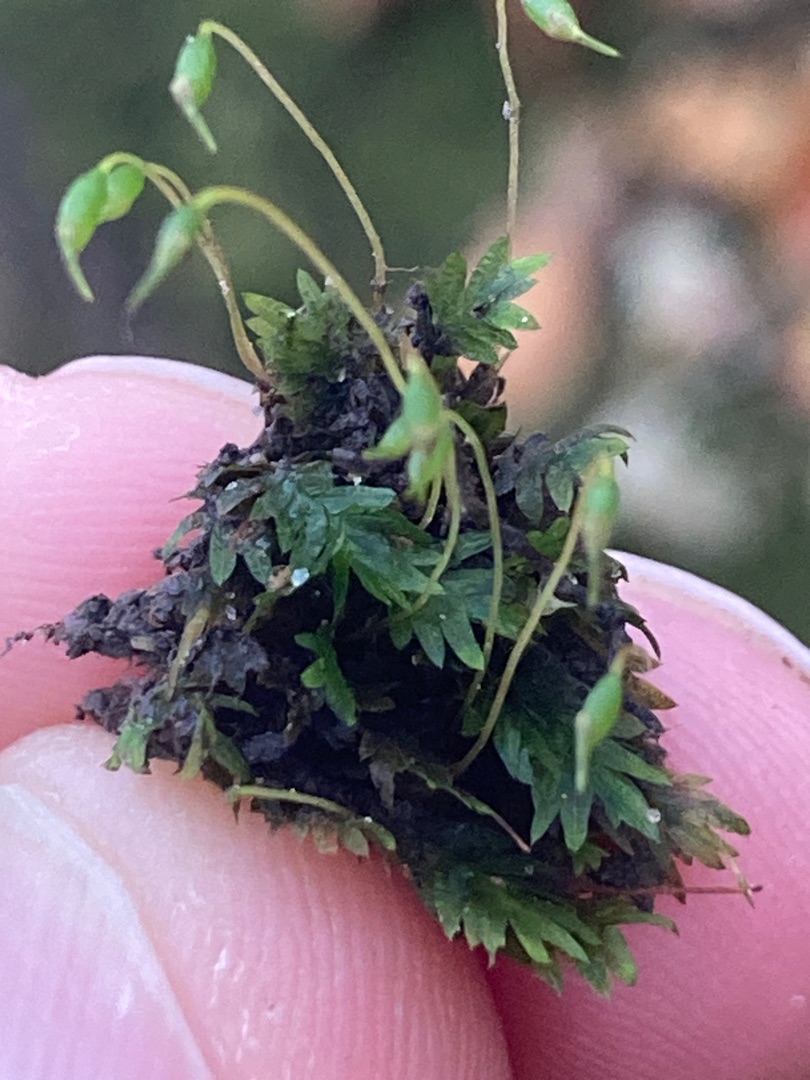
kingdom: Plantae
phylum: Bryophyta
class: Bryopsida
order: Dicranales
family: Fissidentaceae
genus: Fissidens
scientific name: Fissidens taxifolius
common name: Taksbladet rademos
